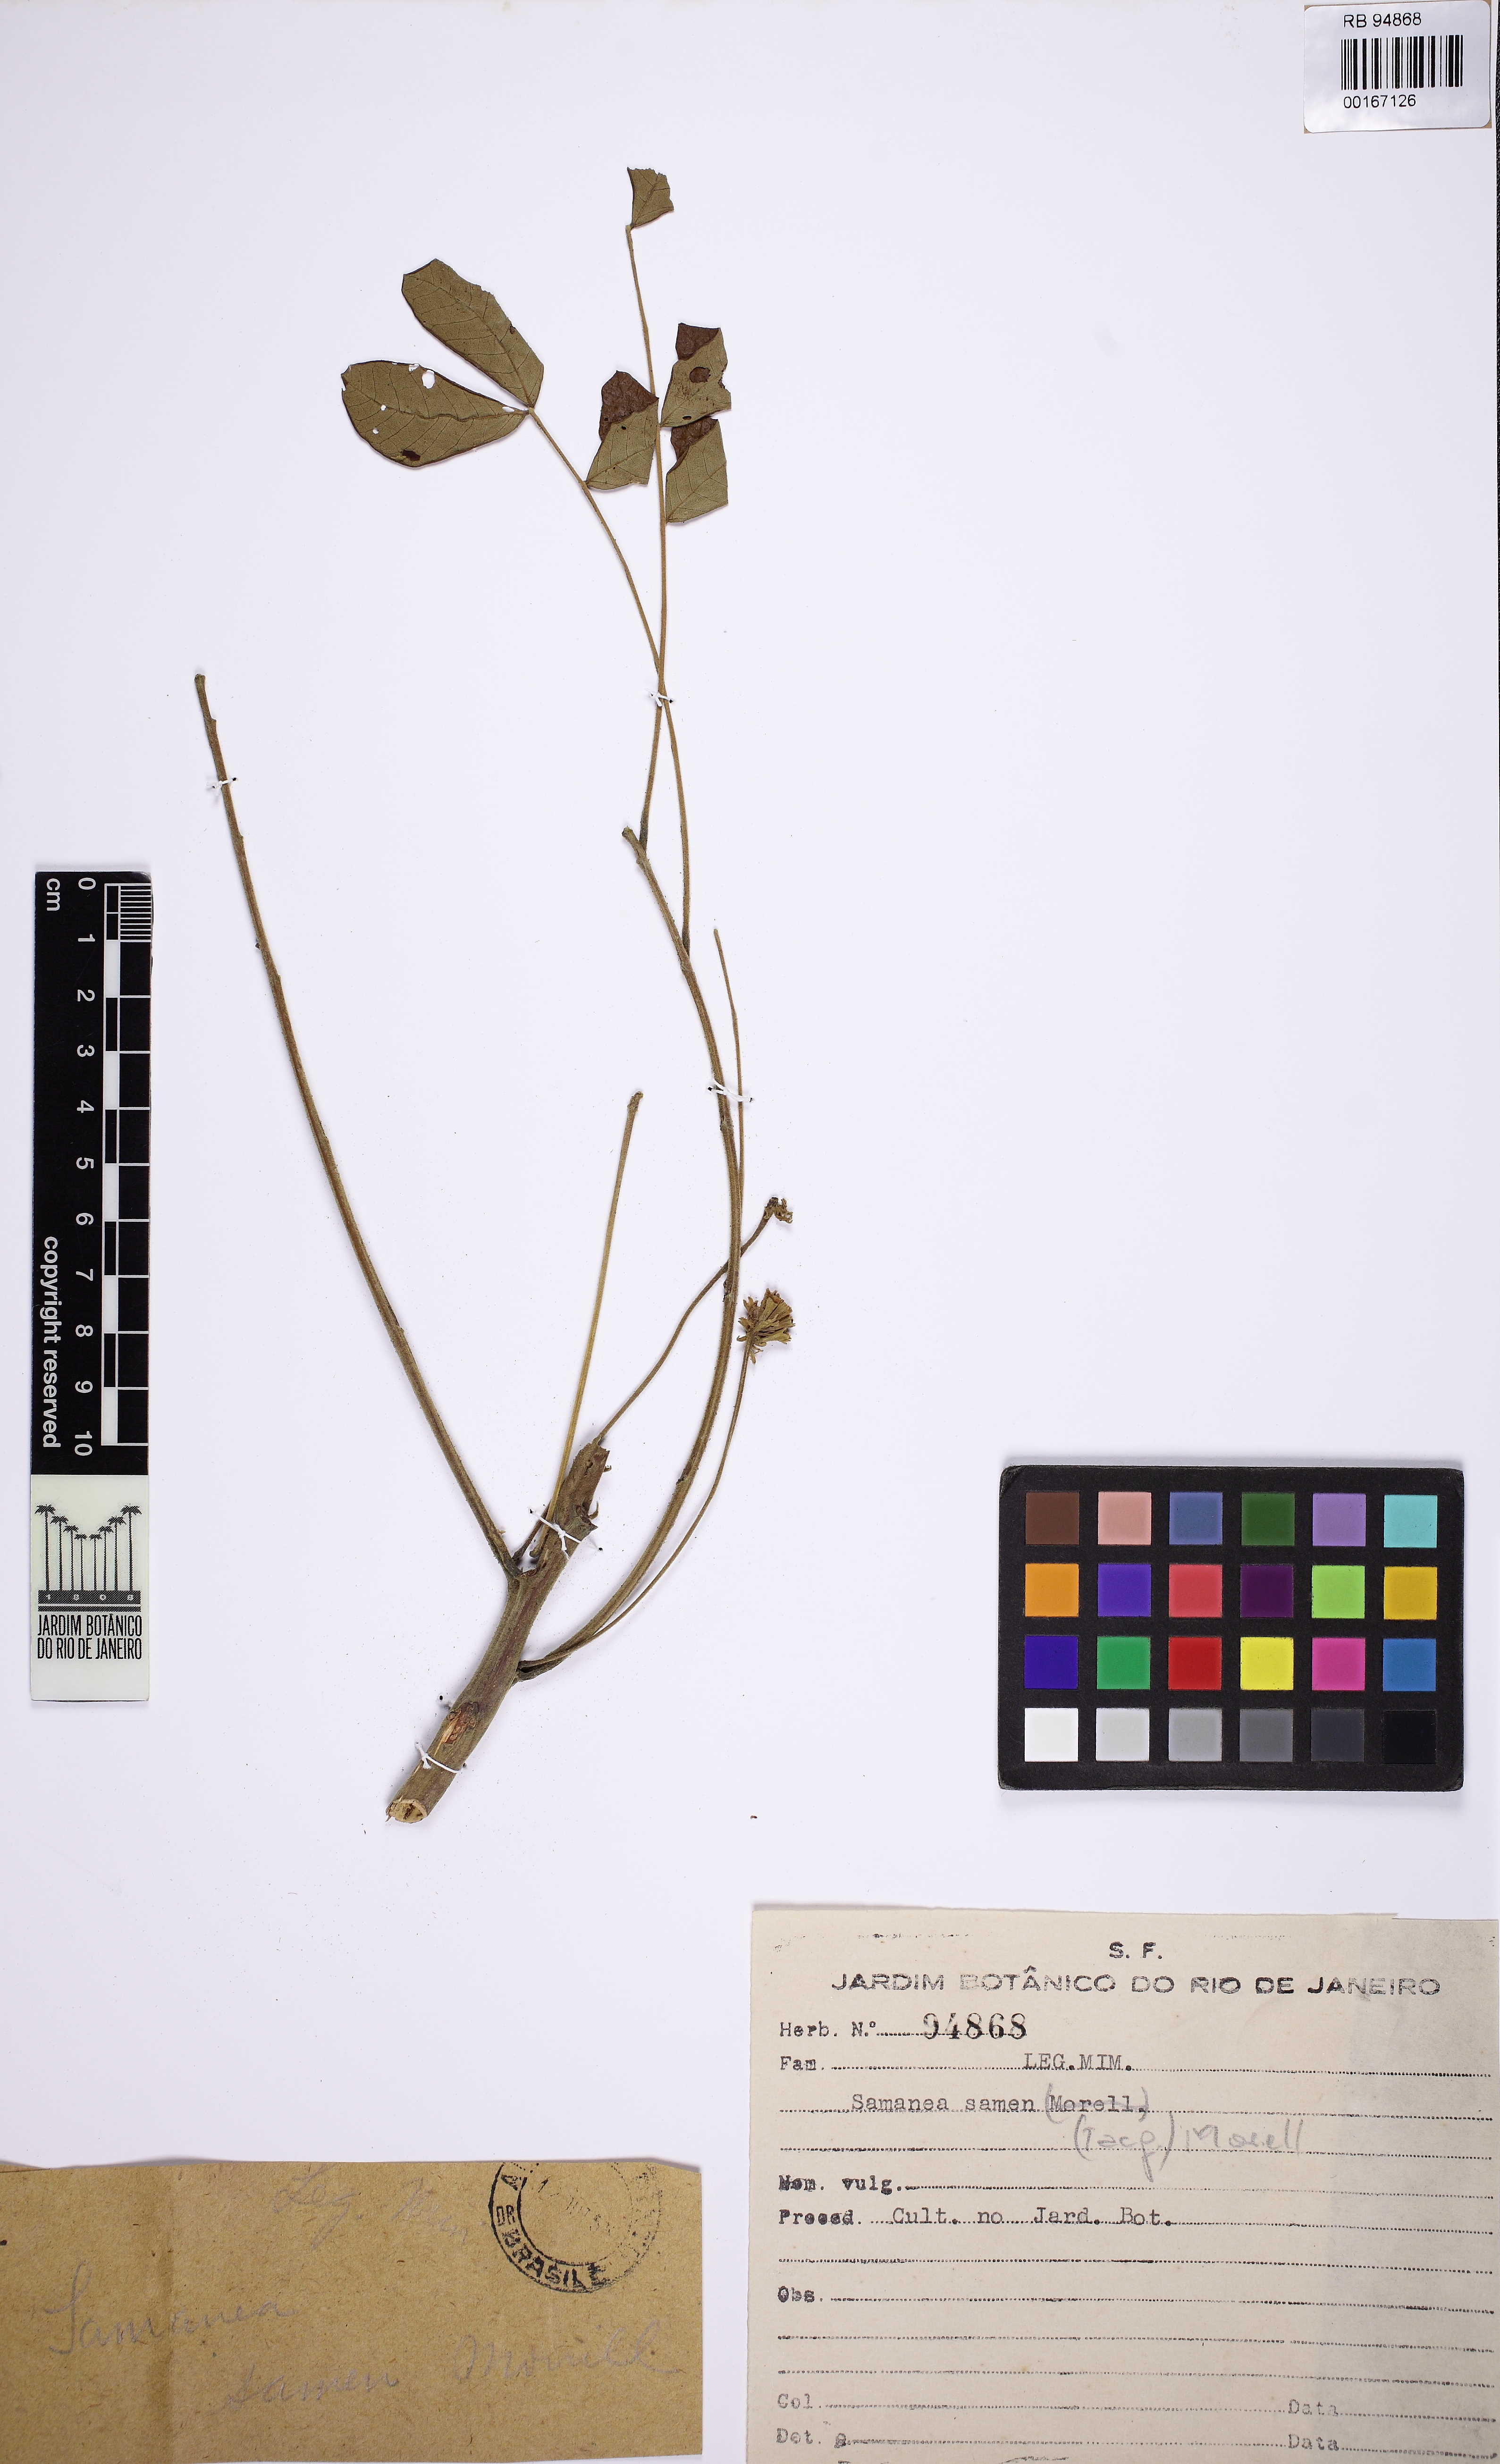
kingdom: Plantae
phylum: Tracheophyta
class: Magnoliopsida
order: Fabales
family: Fabaceae
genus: Samanea
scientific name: Samanea saman
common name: Raintree
